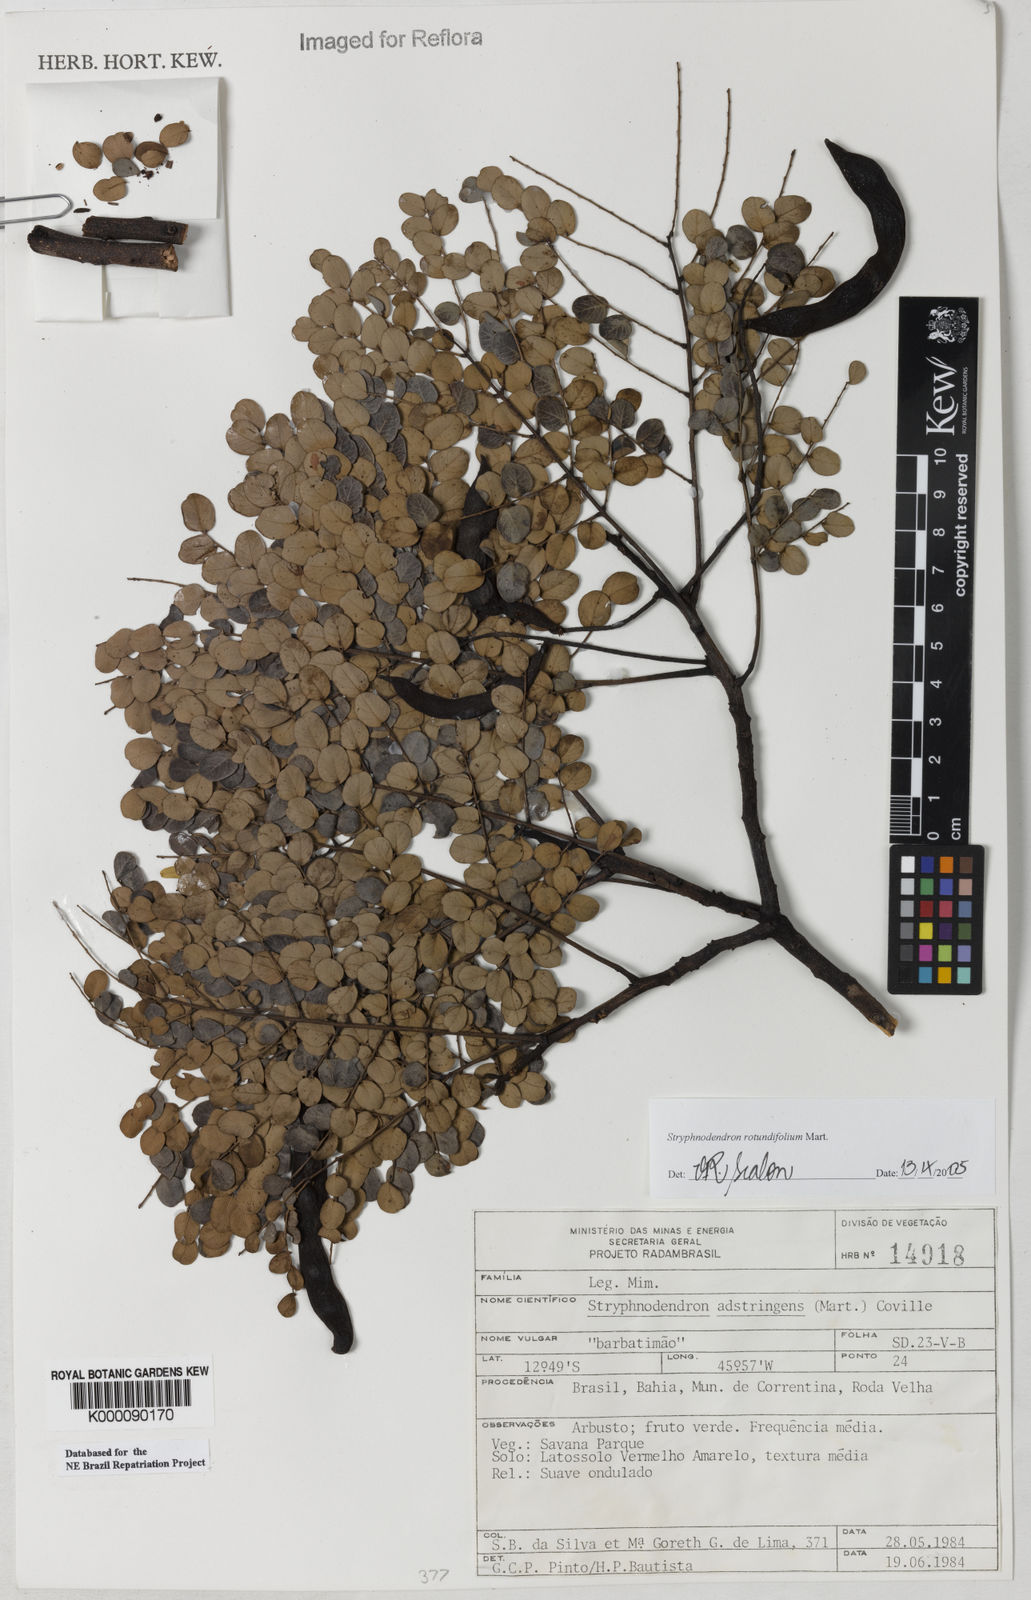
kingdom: Plantae
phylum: Tracheophyta
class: Magnoliopsida
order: Fabales
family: Fabaceae
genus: Stryphnodendron
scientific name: Stryphnodendron adstringens
